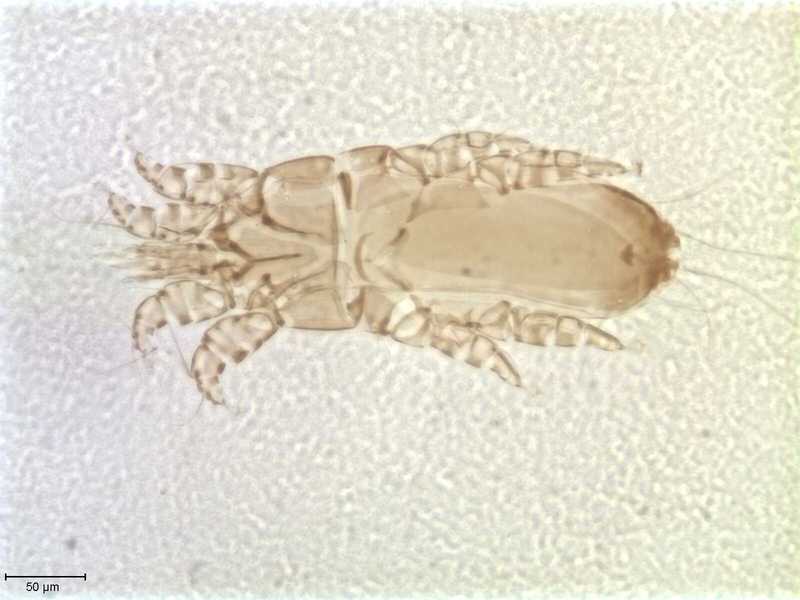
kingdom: Animalia
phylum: Arthropoda
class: Arachnida
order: Sarcoptiformes
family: Alloptidae
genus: Brephosceles
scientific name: Brephosceles
